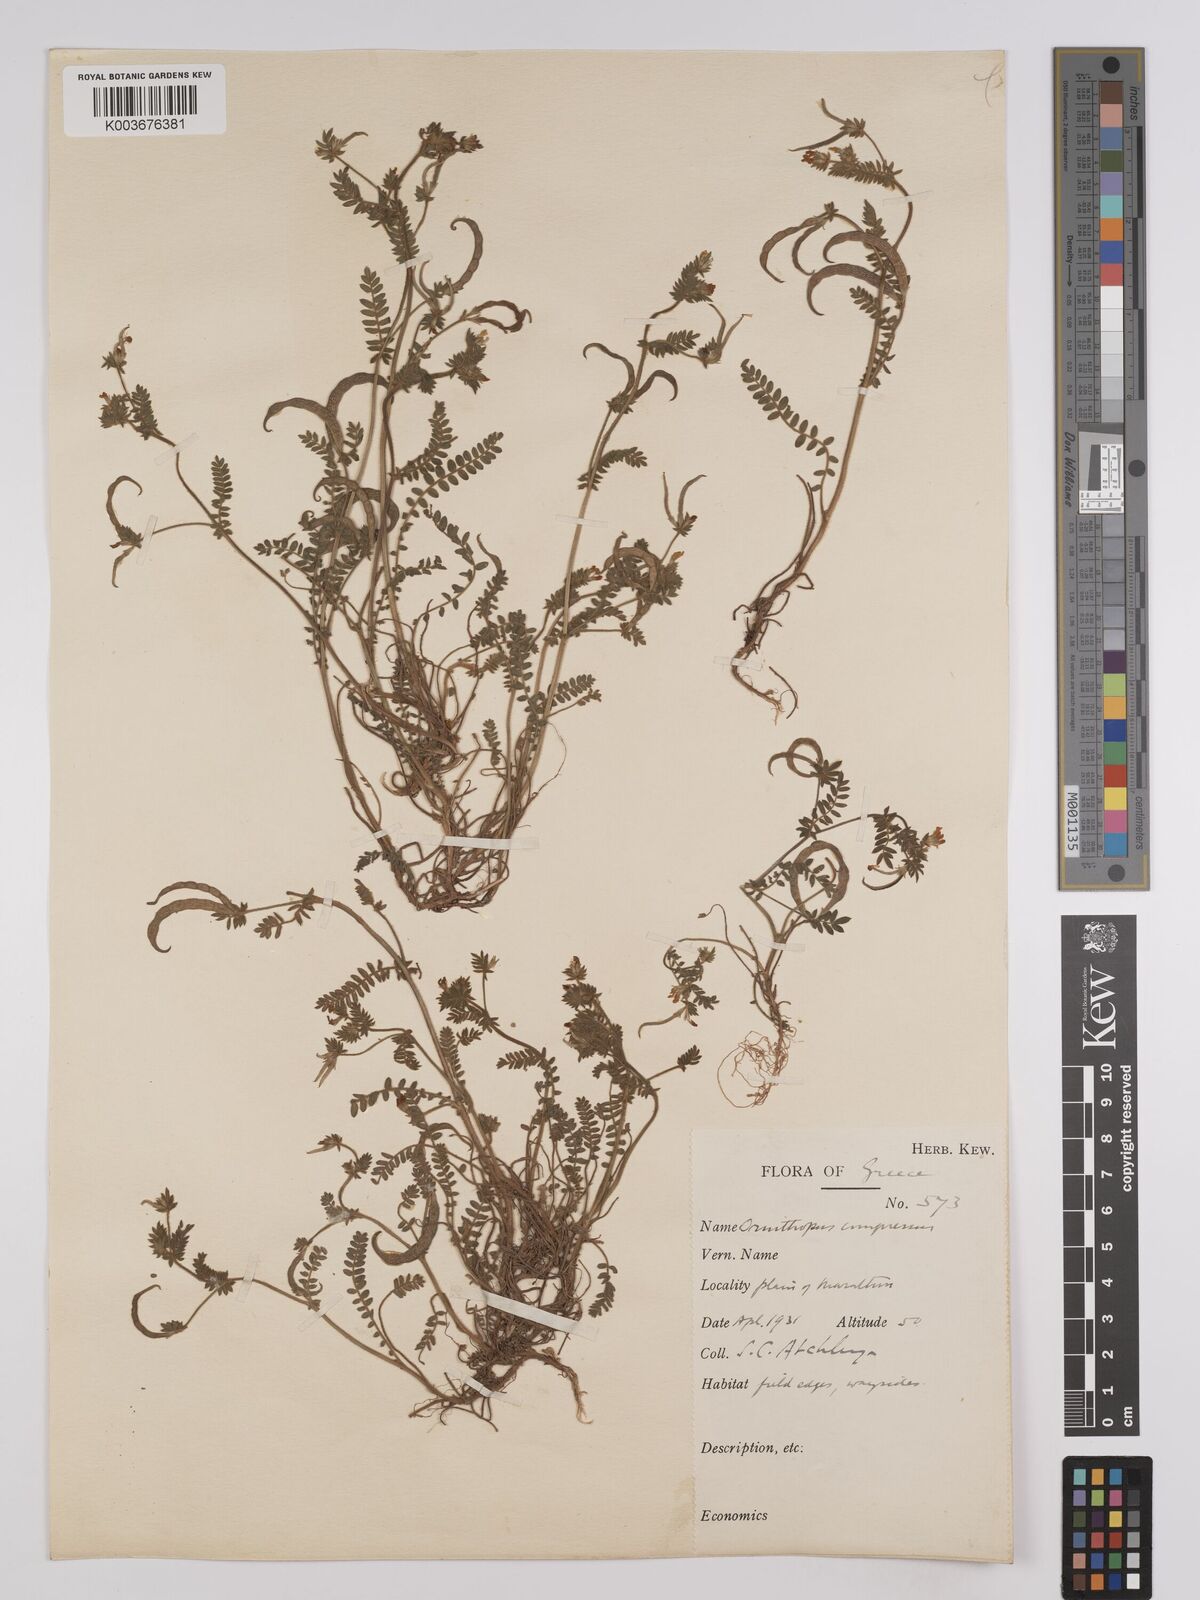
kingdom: Plantae
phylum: Tracheophyta
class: Magnoliopsida
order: Fabales
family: Fabaceae
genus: Ornithopus
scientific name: Ornithopus compressus
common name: Yellow serradella
